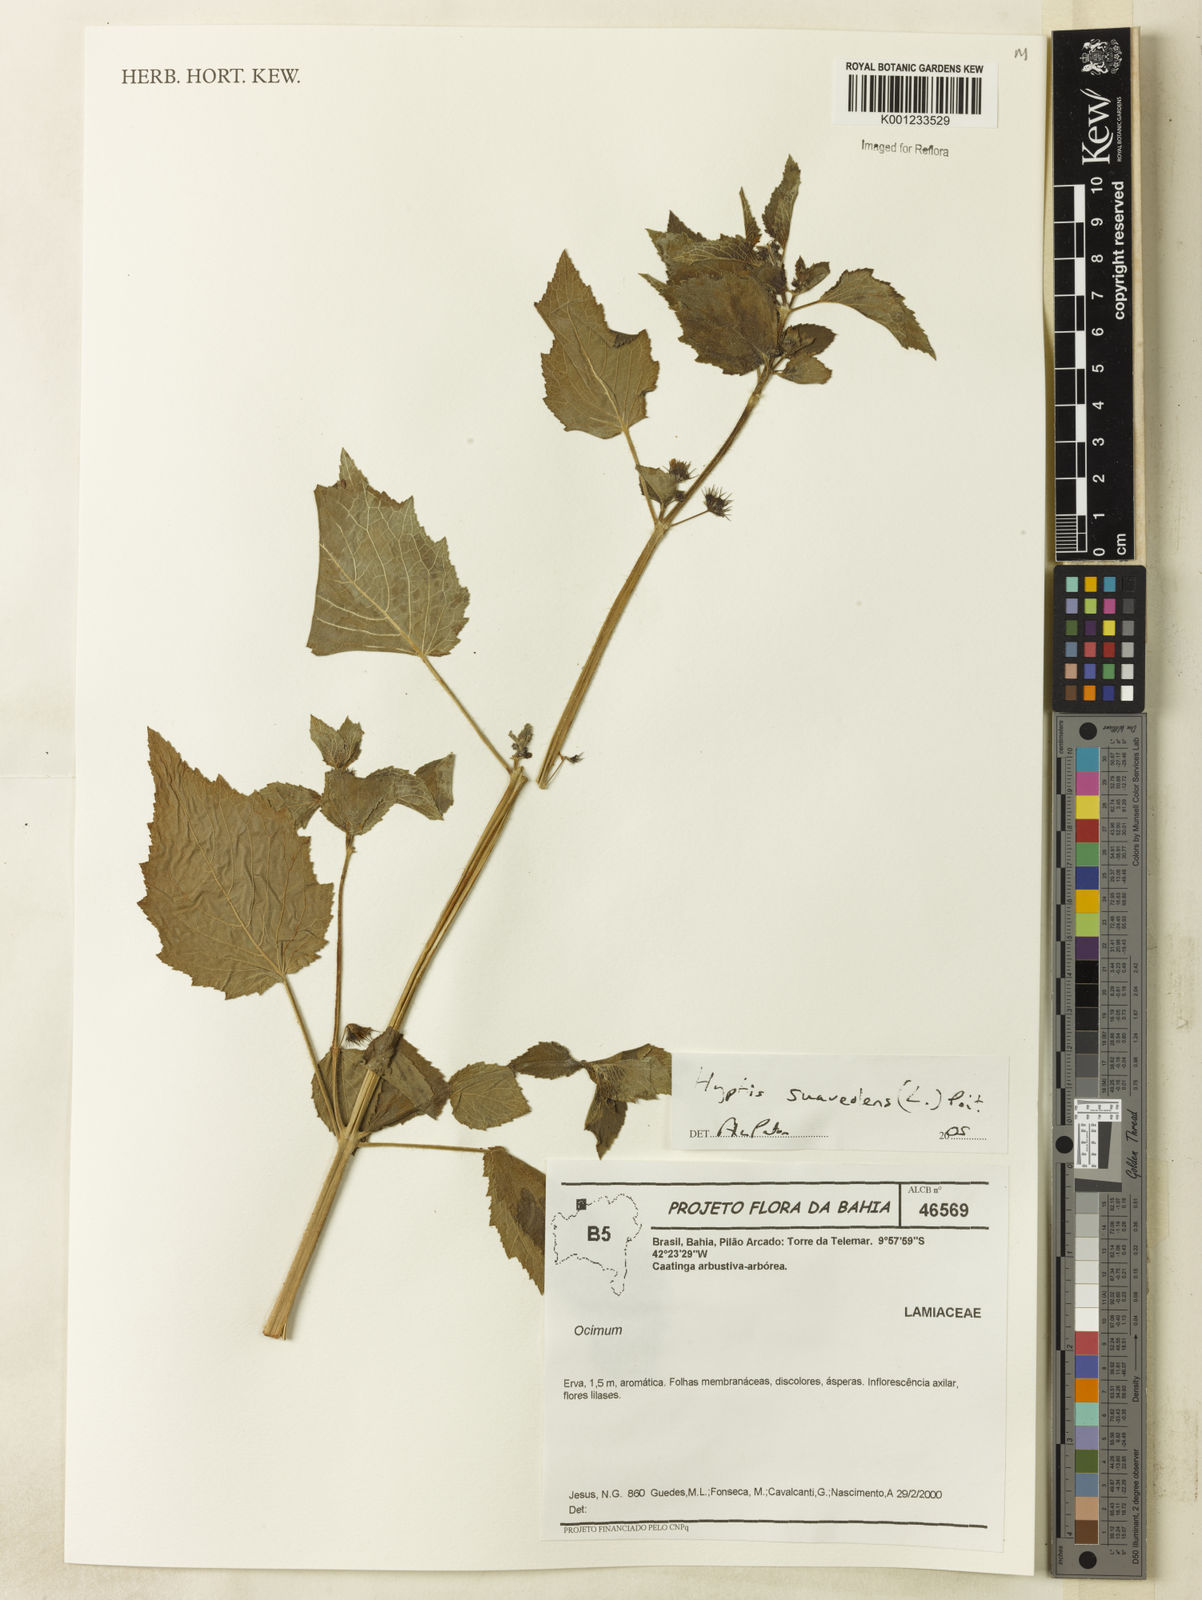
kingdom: Plantae
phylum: Tracheophyta
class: Magnoliopsida
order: Lamiales
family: Lamiaceae
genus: Mesosphaerum
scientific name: Mesosphaerum suaveolens
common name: Pignut
